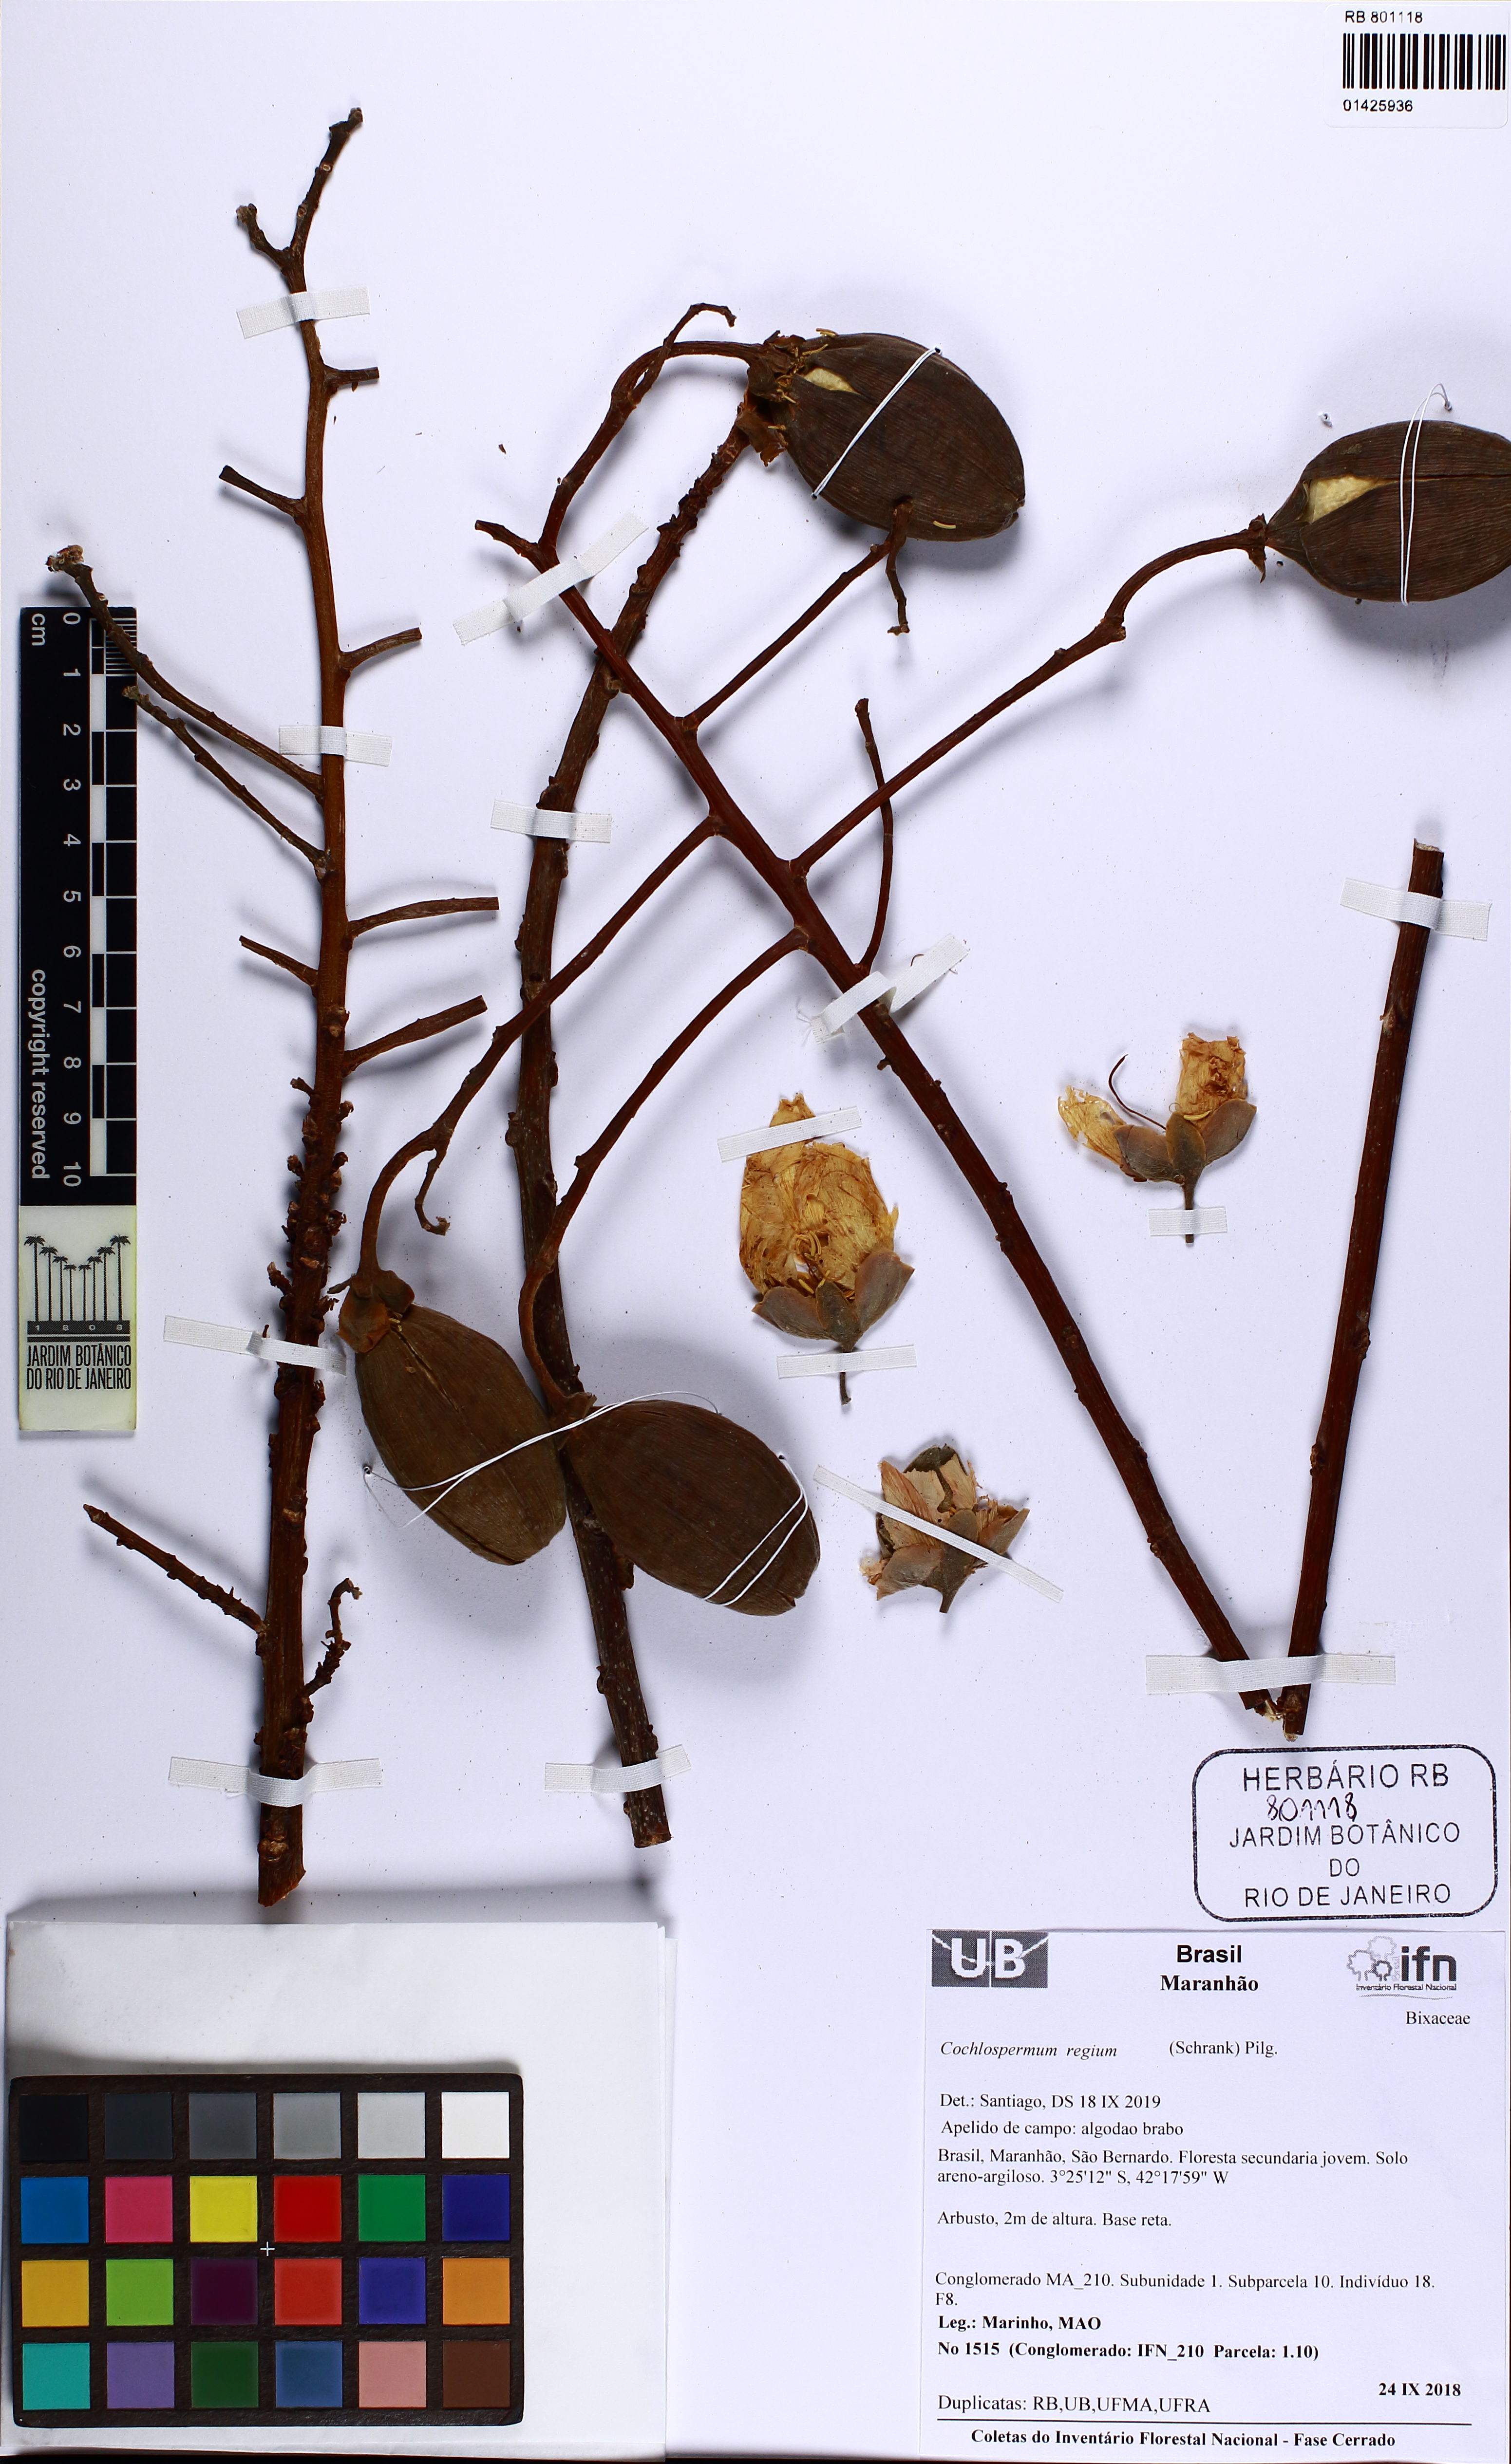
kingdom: Plantae
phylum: Tracheophyta
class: Magnoliopsida
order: Malvales
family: Cochlospermaceae
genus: Cochlospermum
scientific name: Cochlospermum regium
